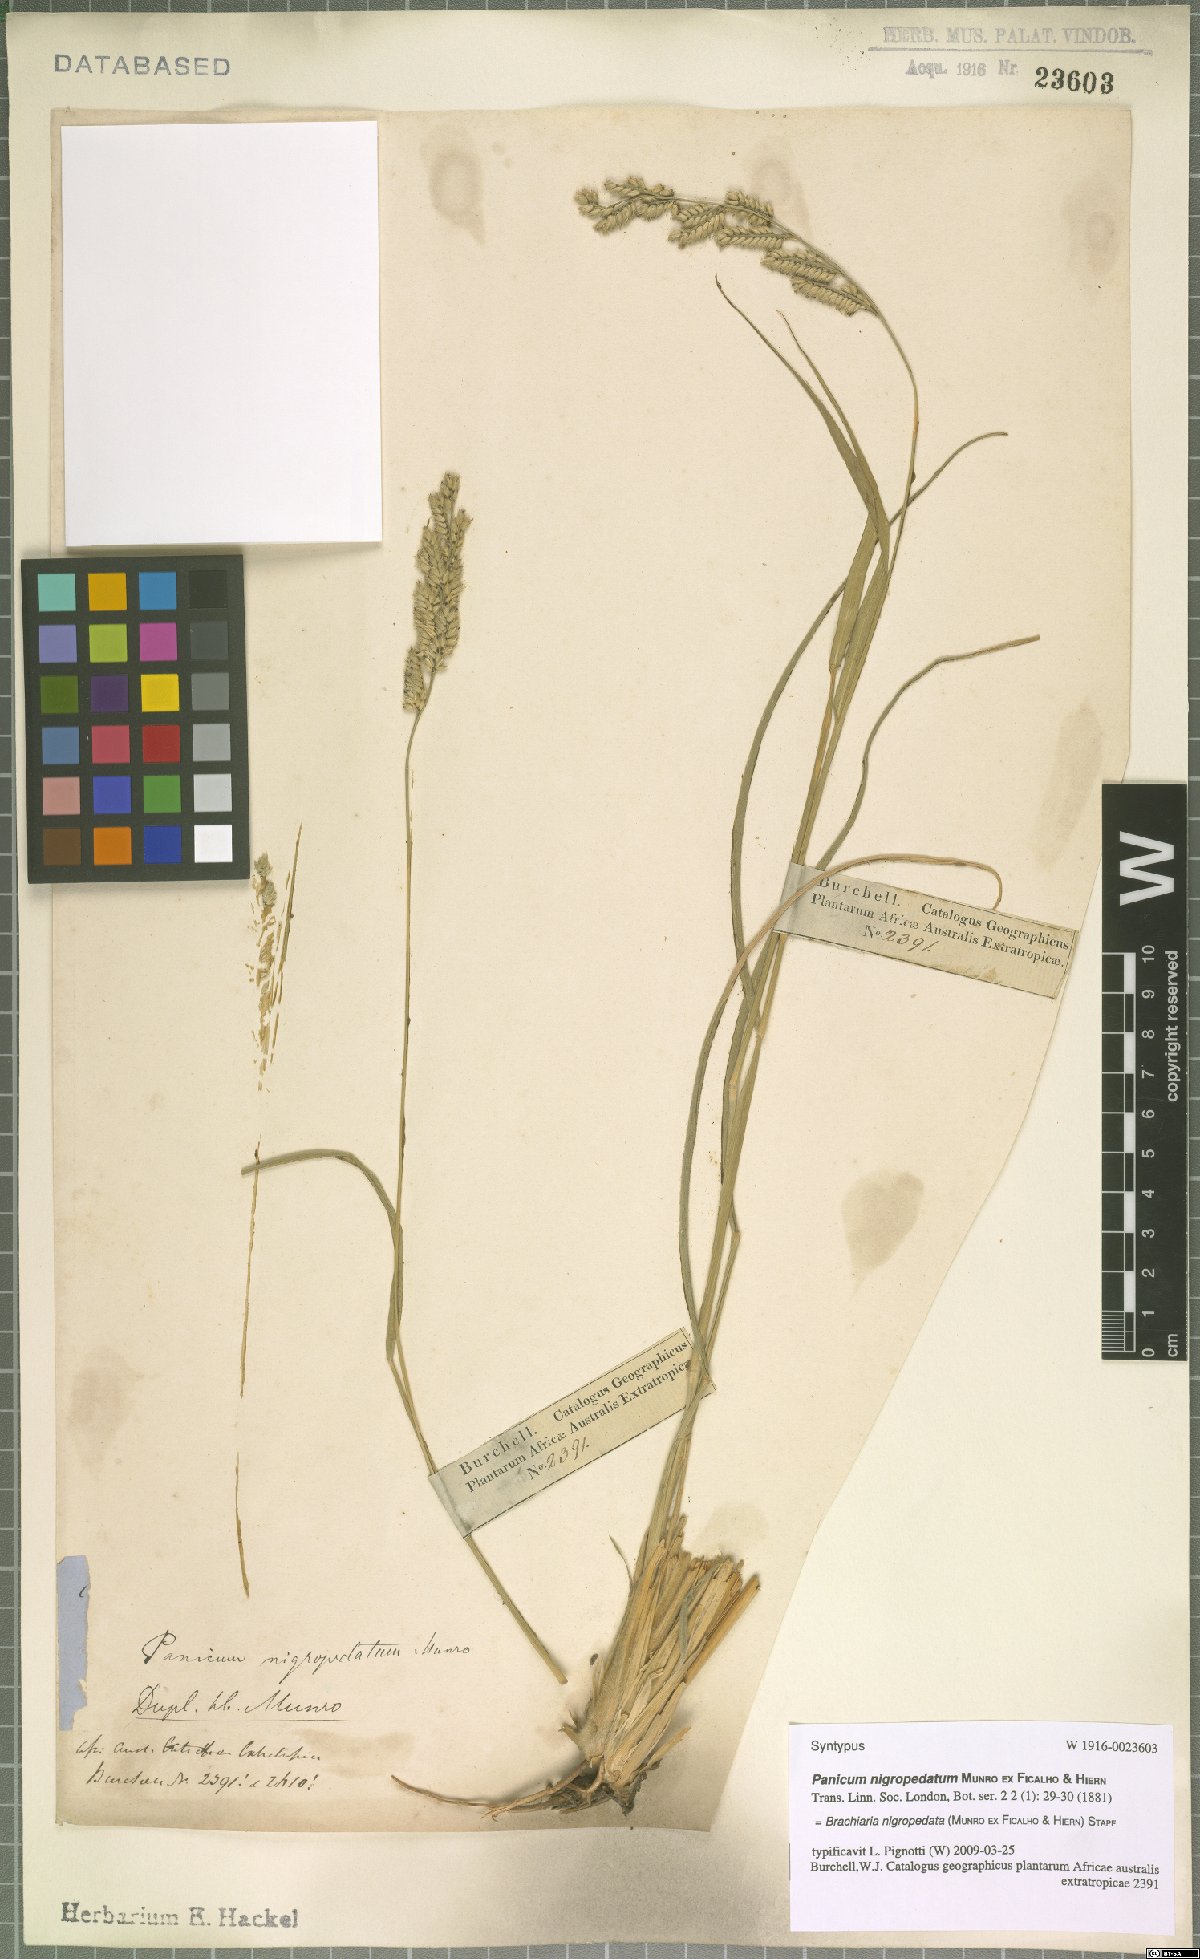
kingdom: Plantae
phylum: Tracheophyta
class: Liliopsida
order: Poales
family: Poaceae
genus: Urochloa
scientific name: Urochloa nigropedata
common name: Spotted signal grass
